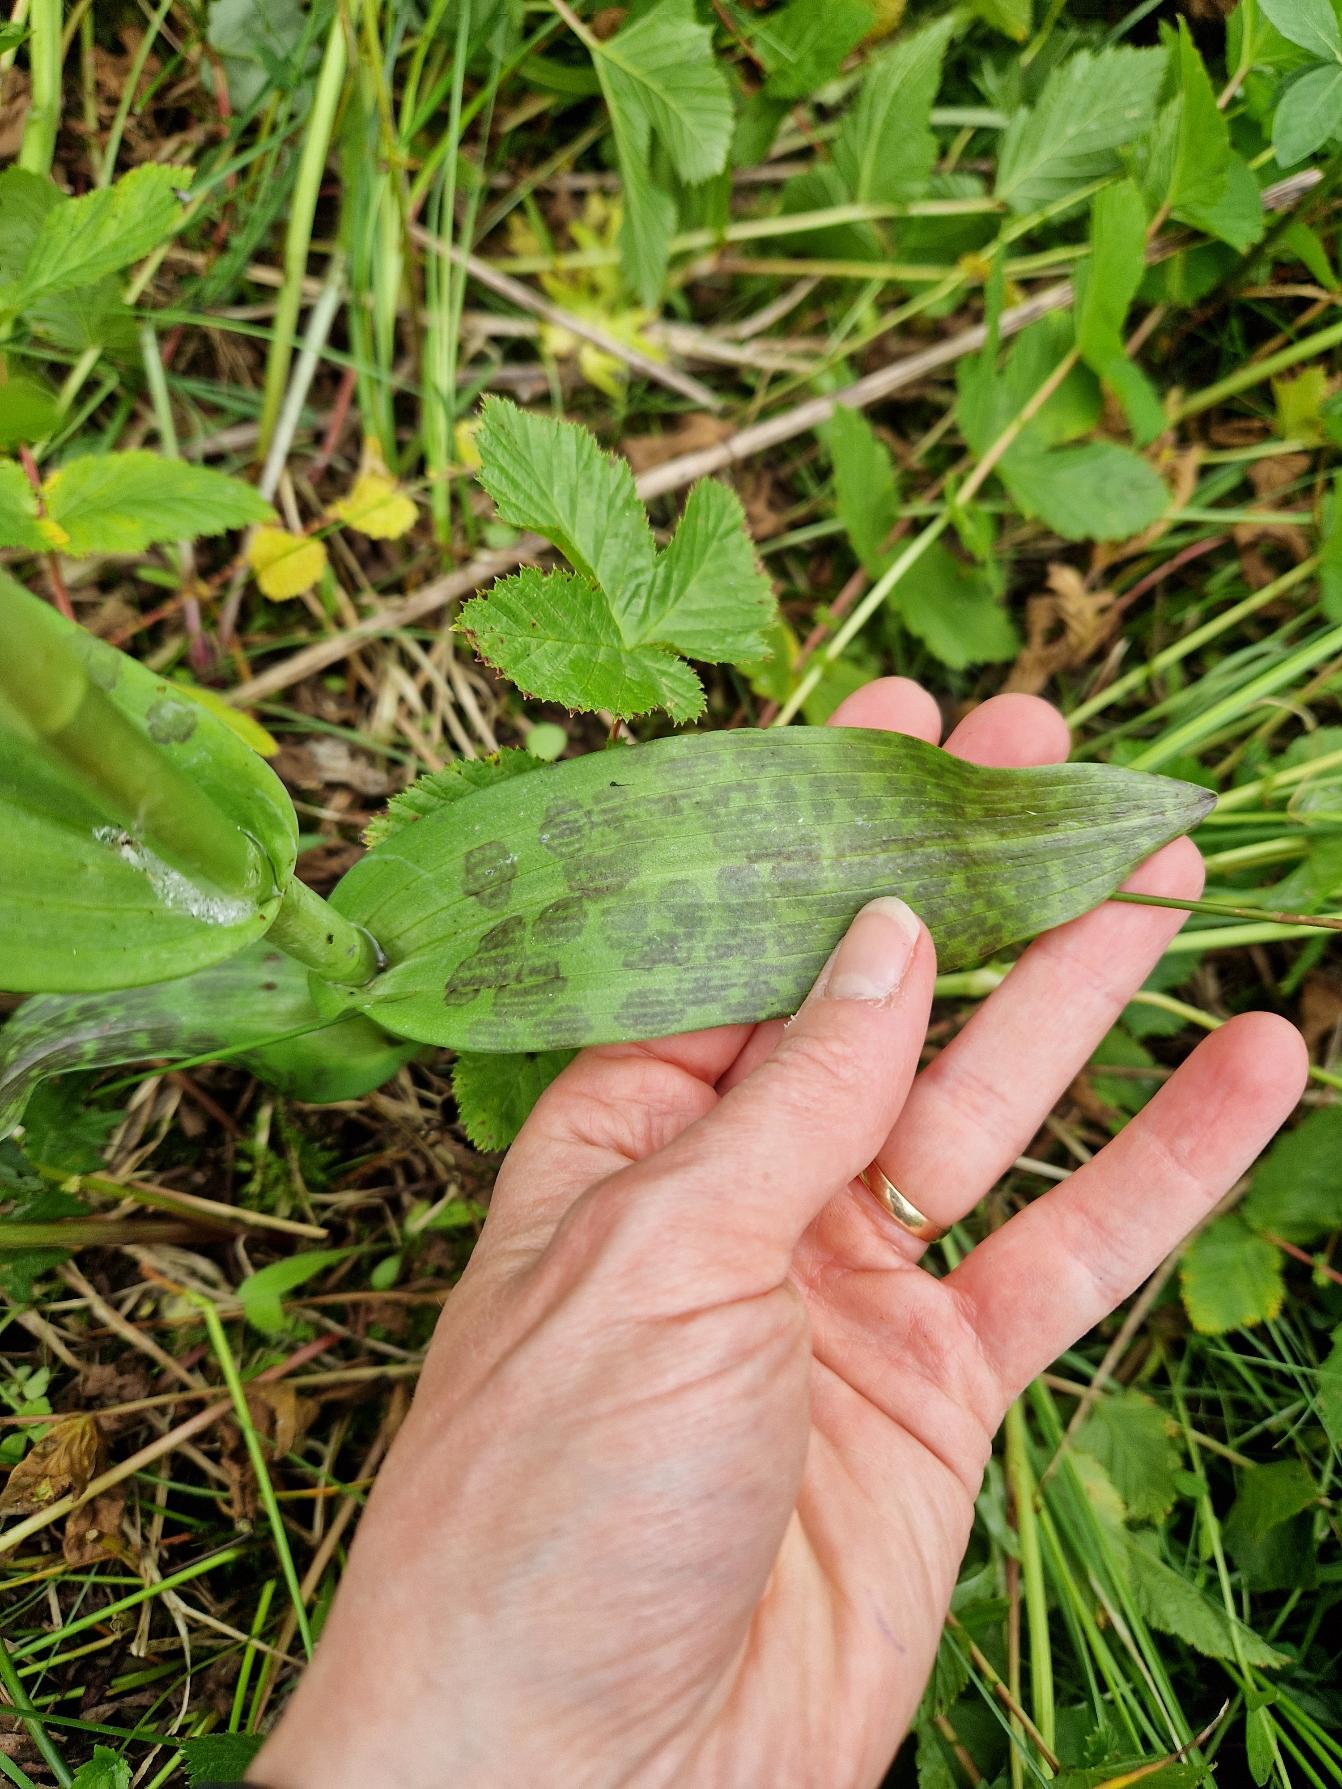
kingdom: Plantae
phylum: Tracheophyta
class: Liliopsida
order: Asparagales
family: Orchidaceae
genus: Dactylorhiza
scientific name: Dactylorhiza majalis
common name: Maj-gøgeurt
